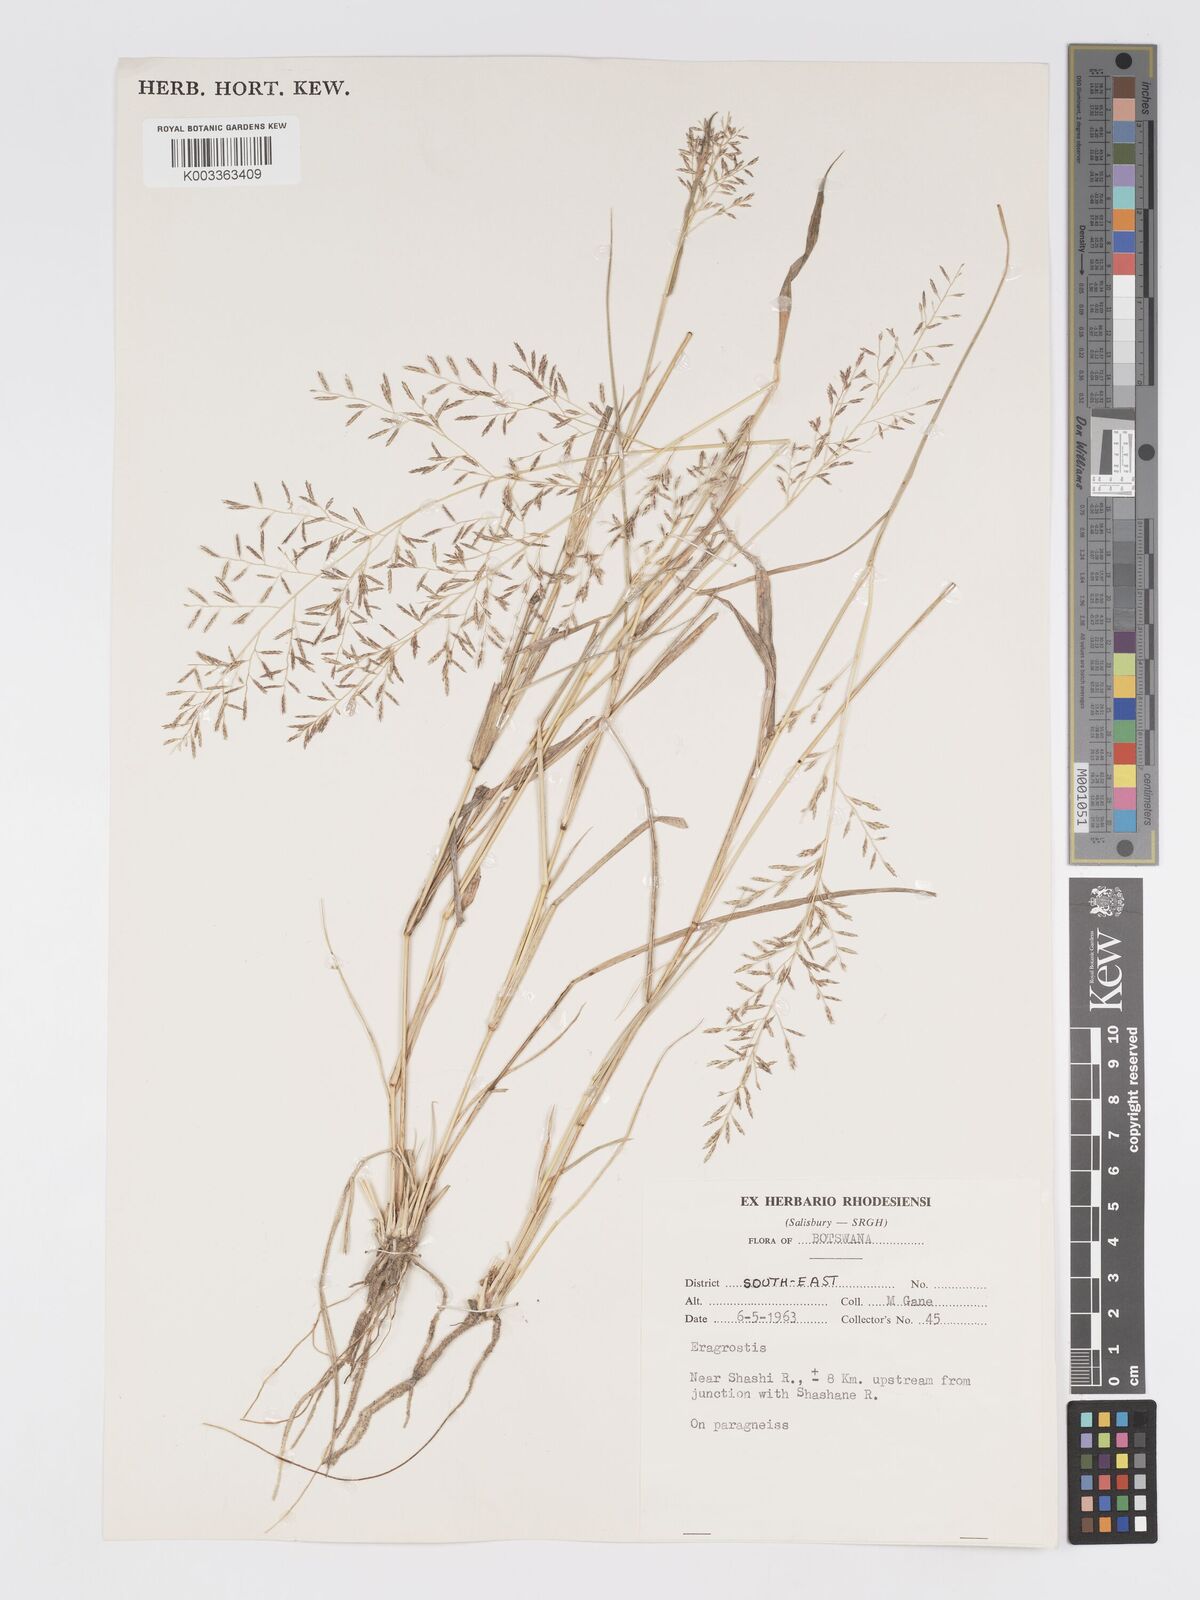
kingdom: Plantae
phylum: Tracheophyta
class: Liliopsida
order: Poales
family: Poaceae
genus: Eragrostis
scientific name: Eragrostis lehmanniana
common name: Lehmann lovegrass
